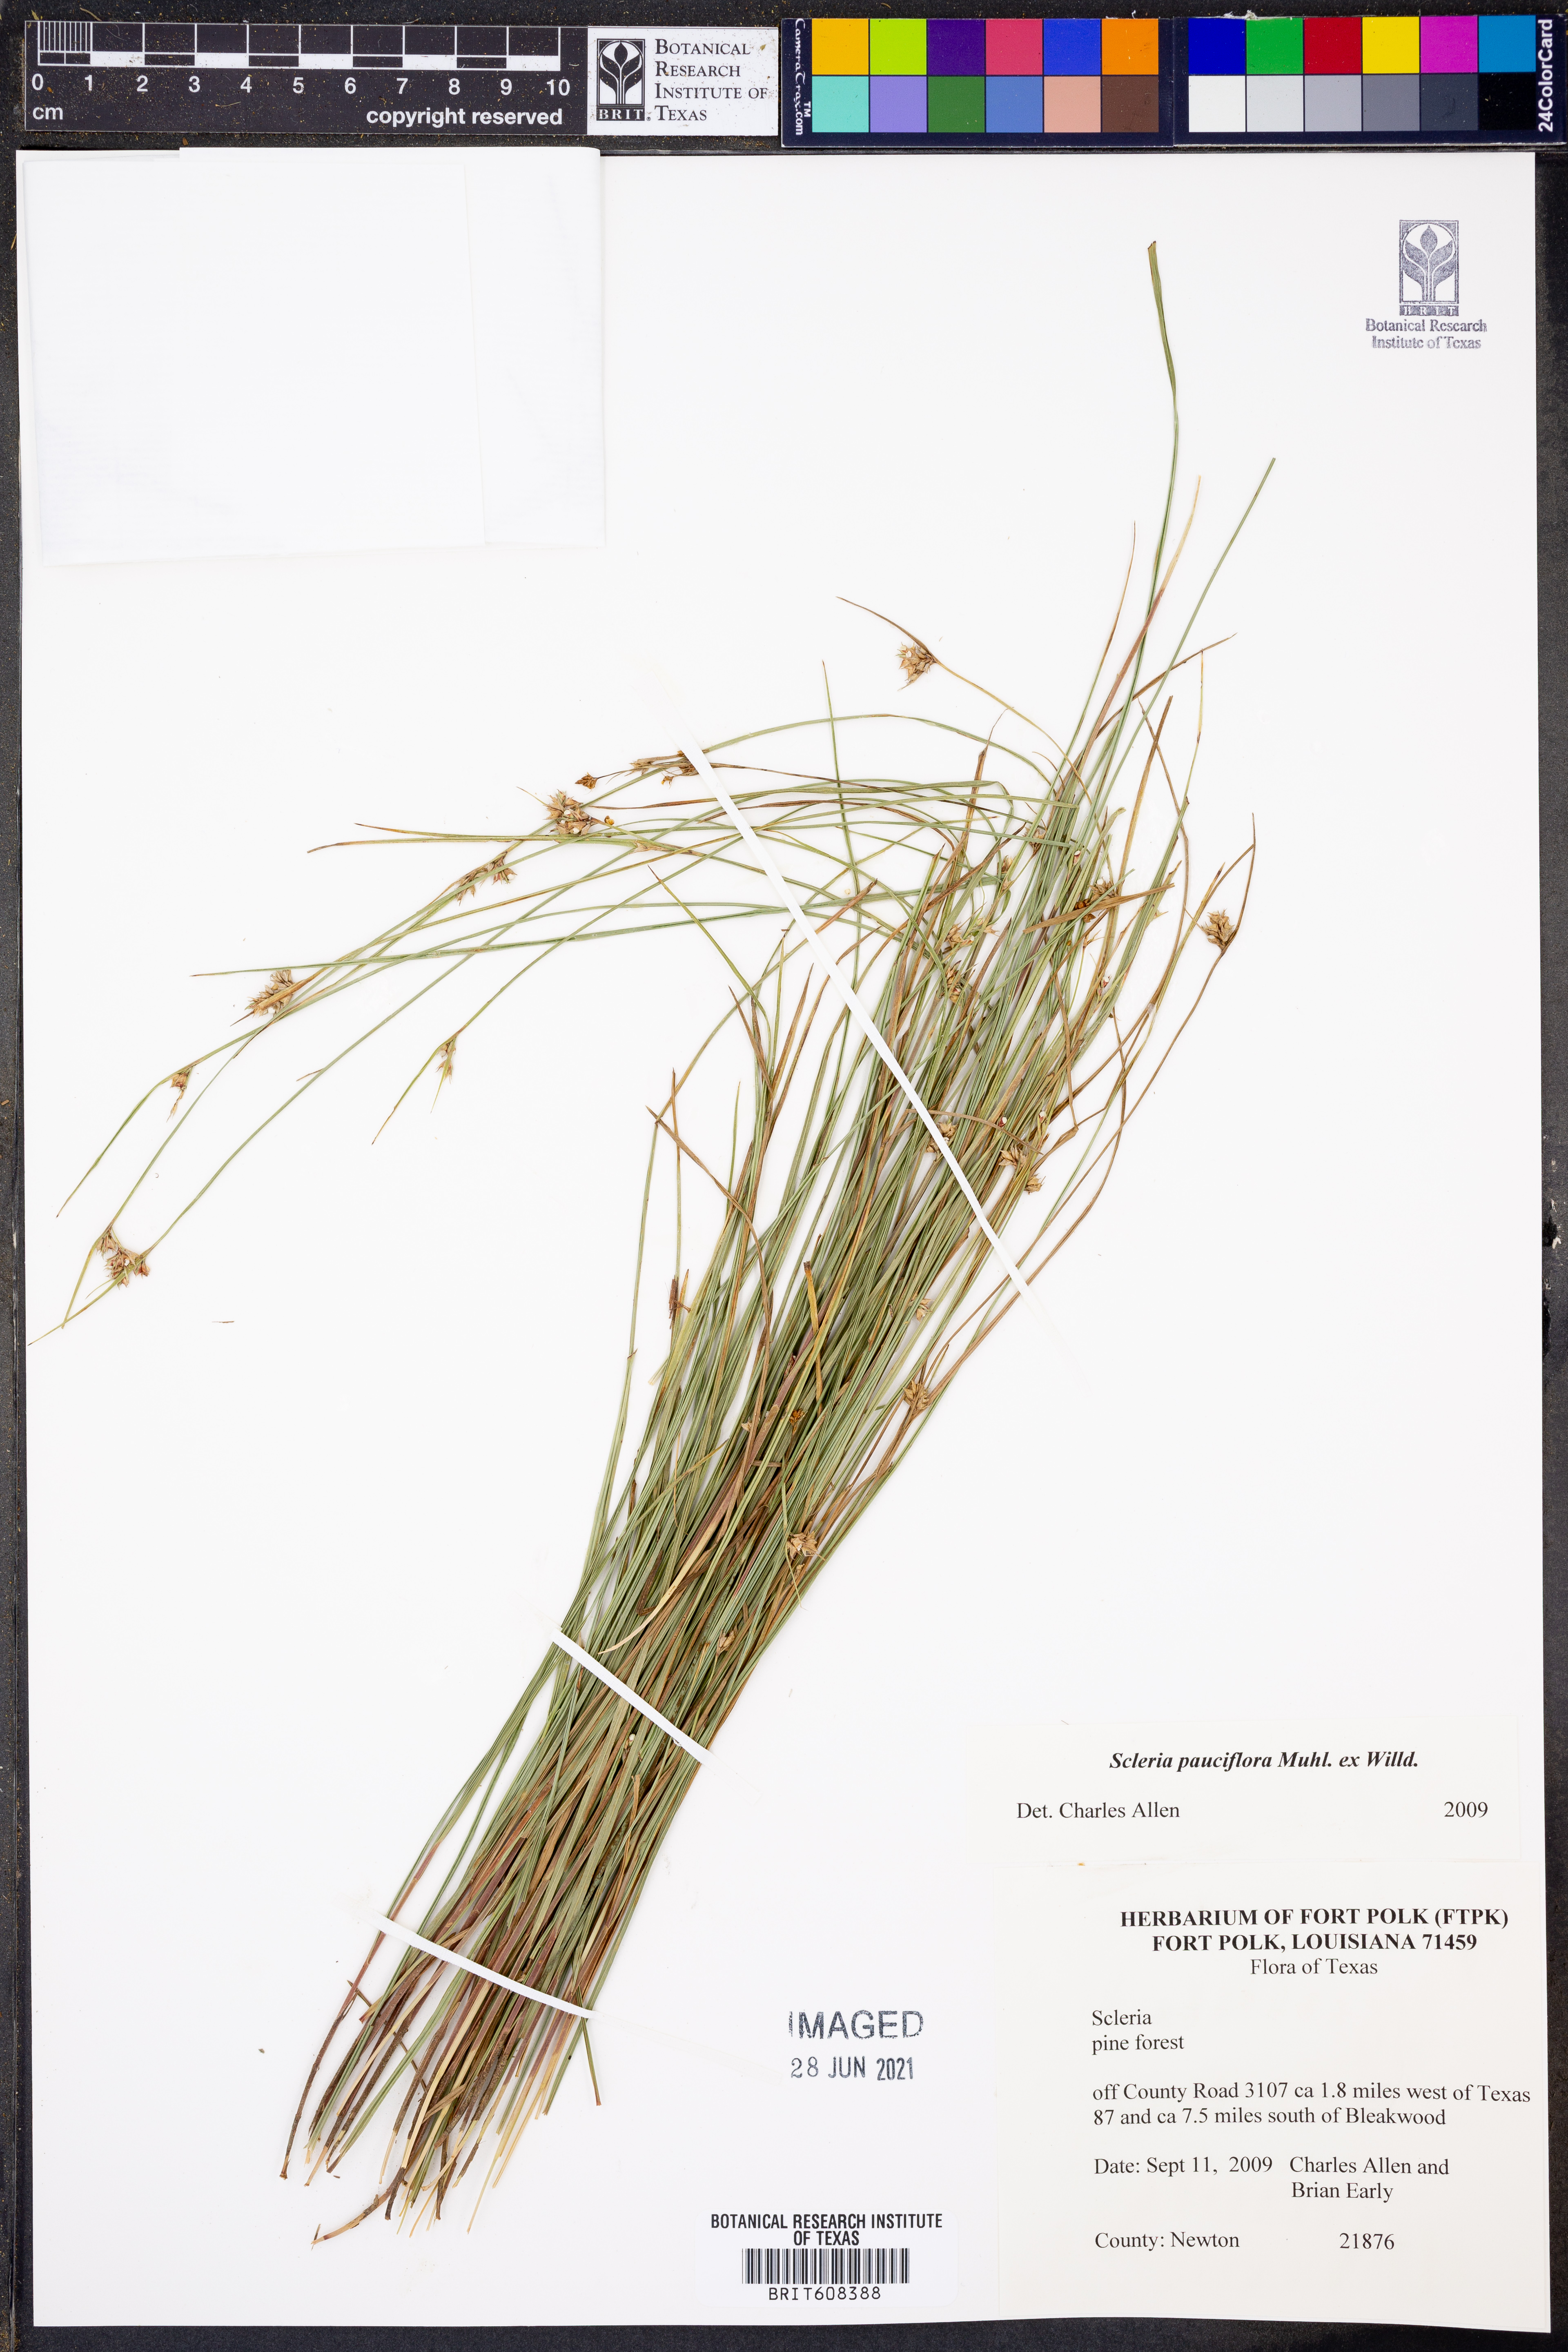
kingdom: Plantae
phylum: Tracheophyta
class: Liliopsida
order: Poales
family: Cyperaceae
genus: Scleria
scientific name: Scleria pauciflora
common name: Few-flowered nutrush
